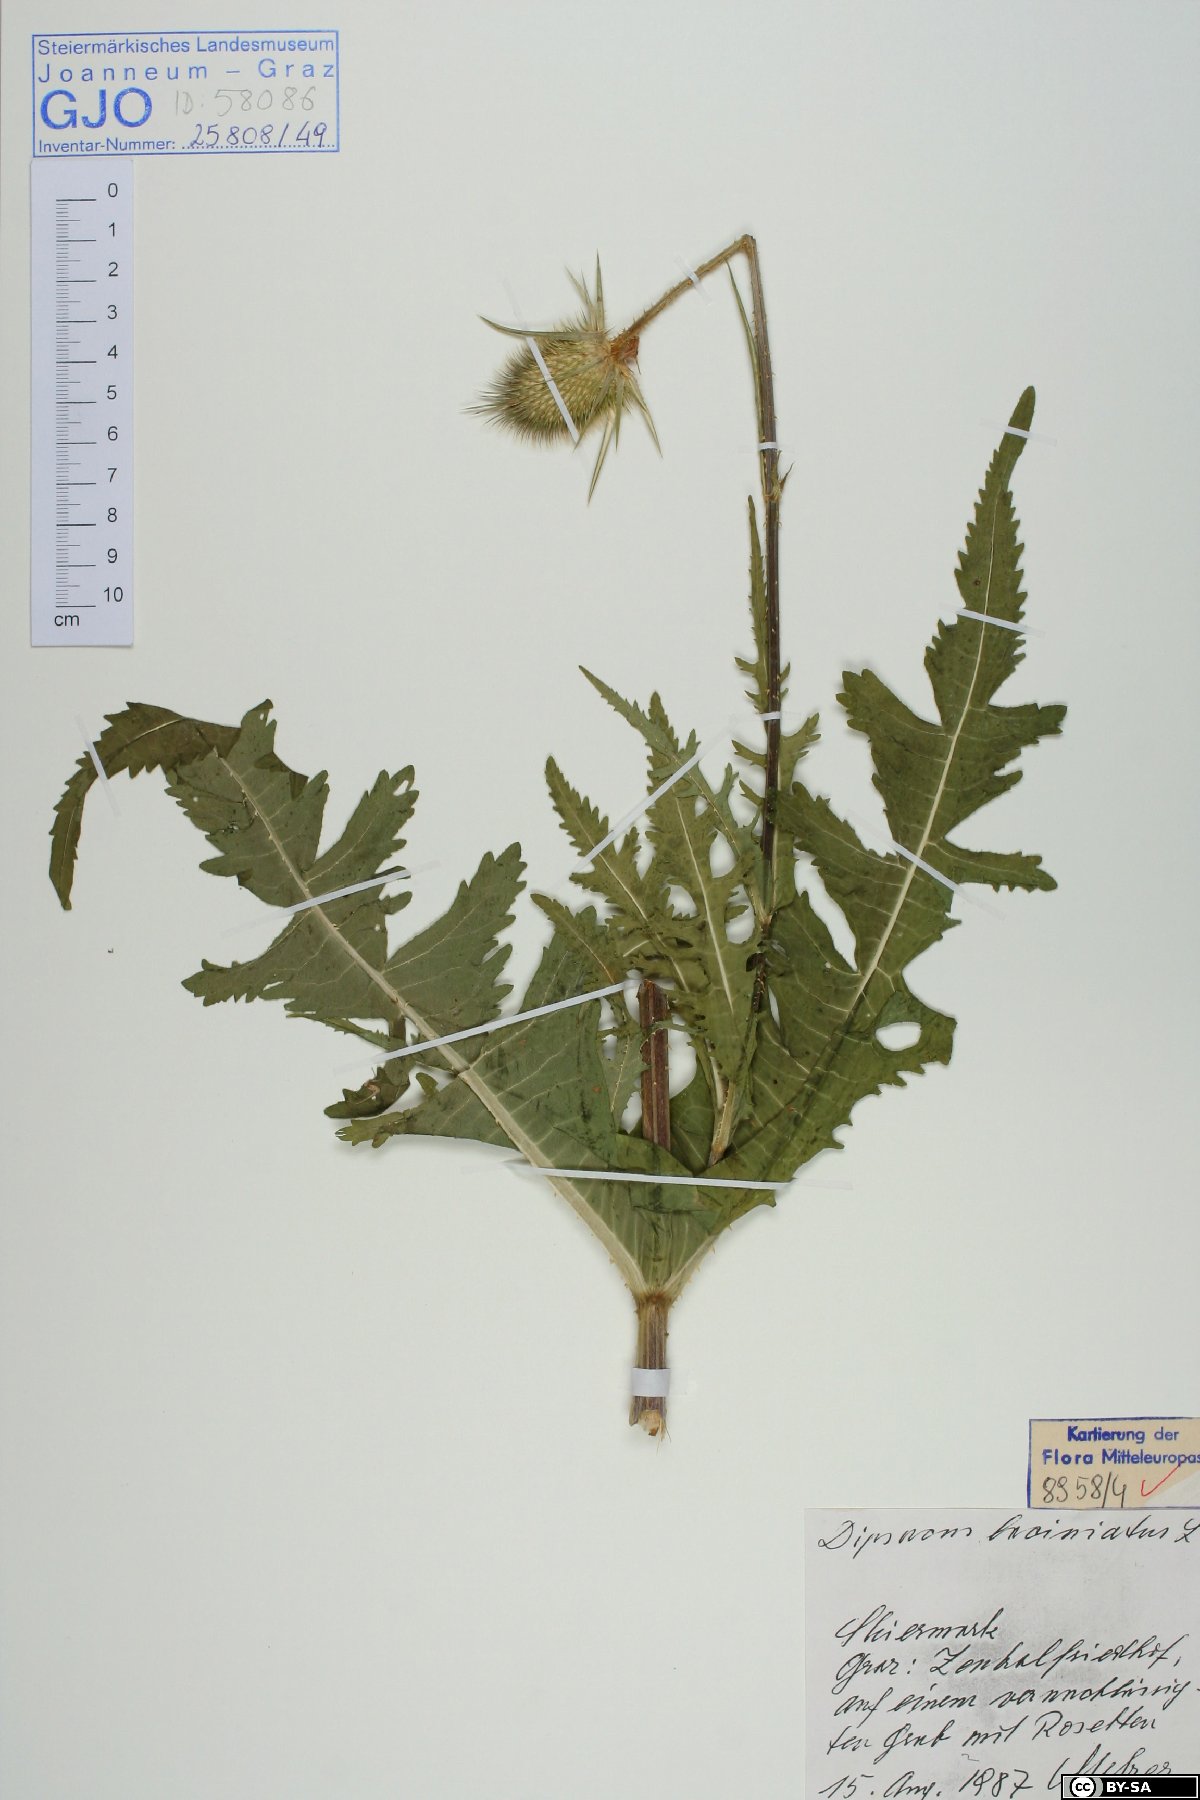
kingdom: Plantae
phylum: Tracheophyta
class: Magnoliopsida
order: Dipsacales
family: Caprifoliaceae
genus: Dipsacus
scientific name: Dipsacus laciniatus
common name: Cut-leaved teasel
